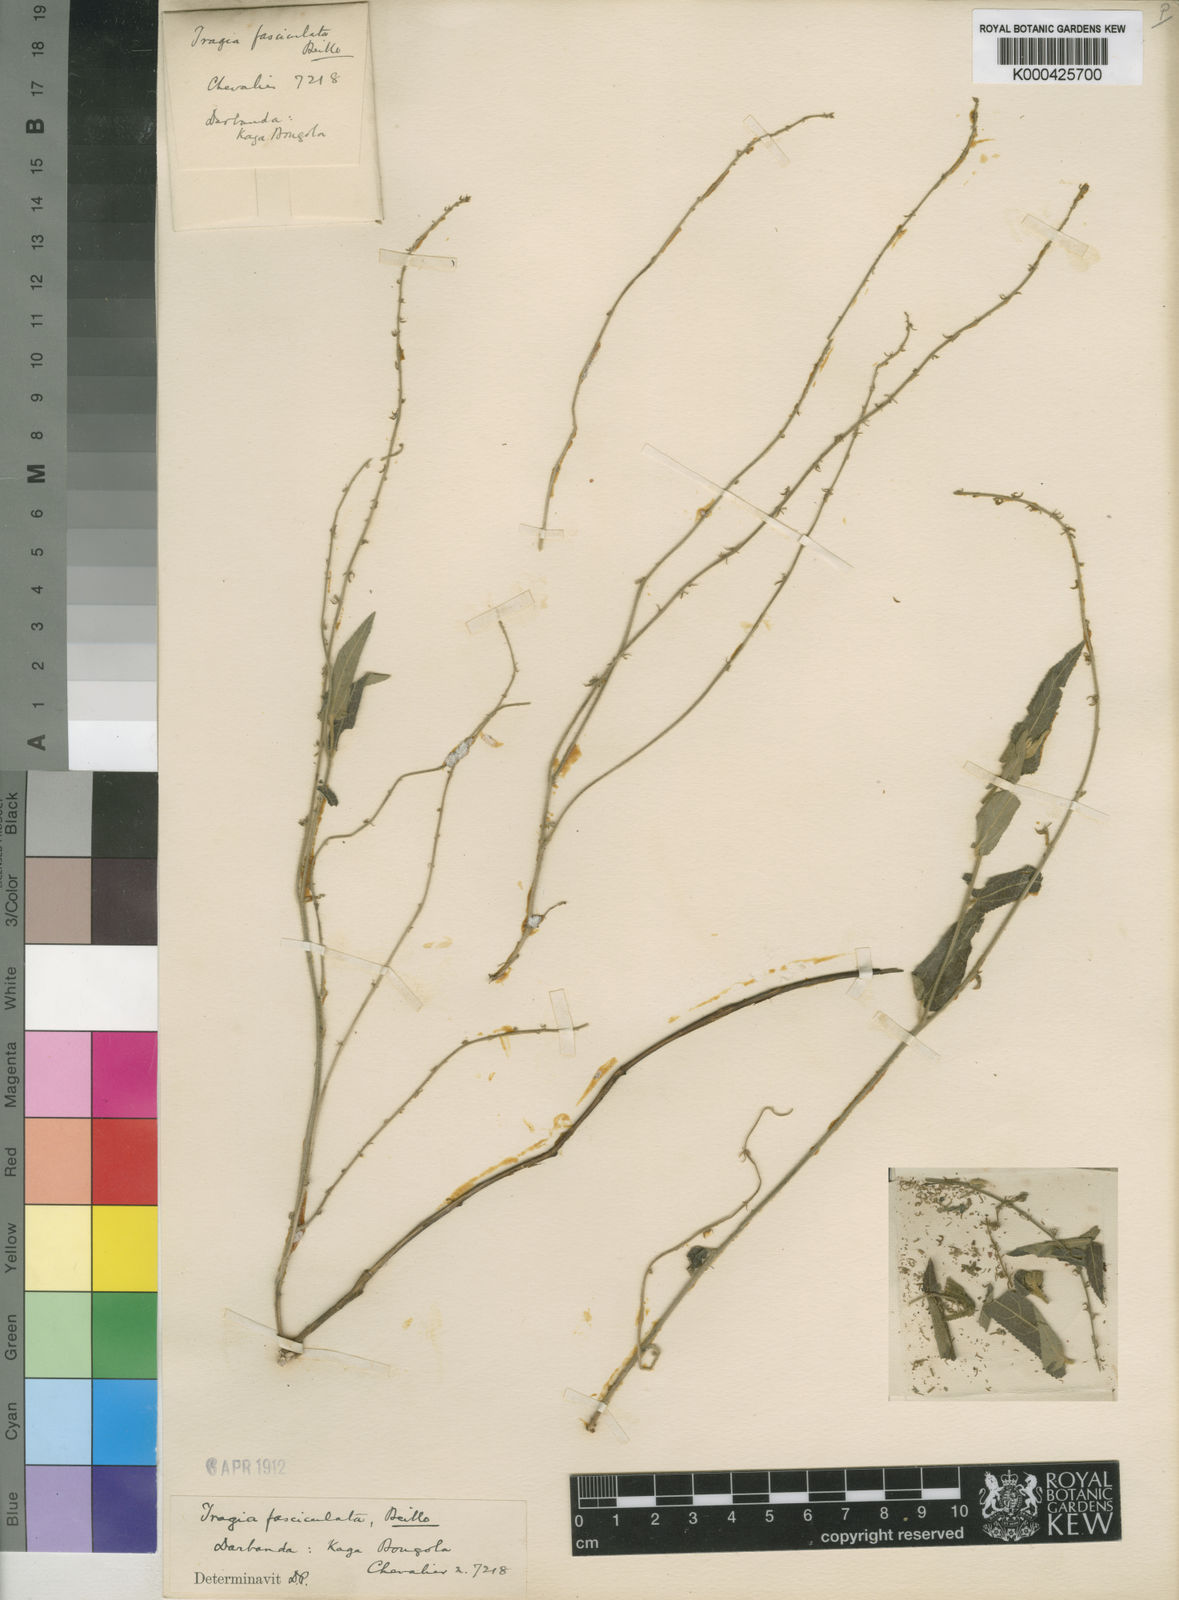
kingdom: Plantae
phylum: Tracheophyta
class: Magnoliopsida
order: Malpighiales
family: Euphorbiaceae
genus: Tragia
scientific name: Tragia fasciculata
